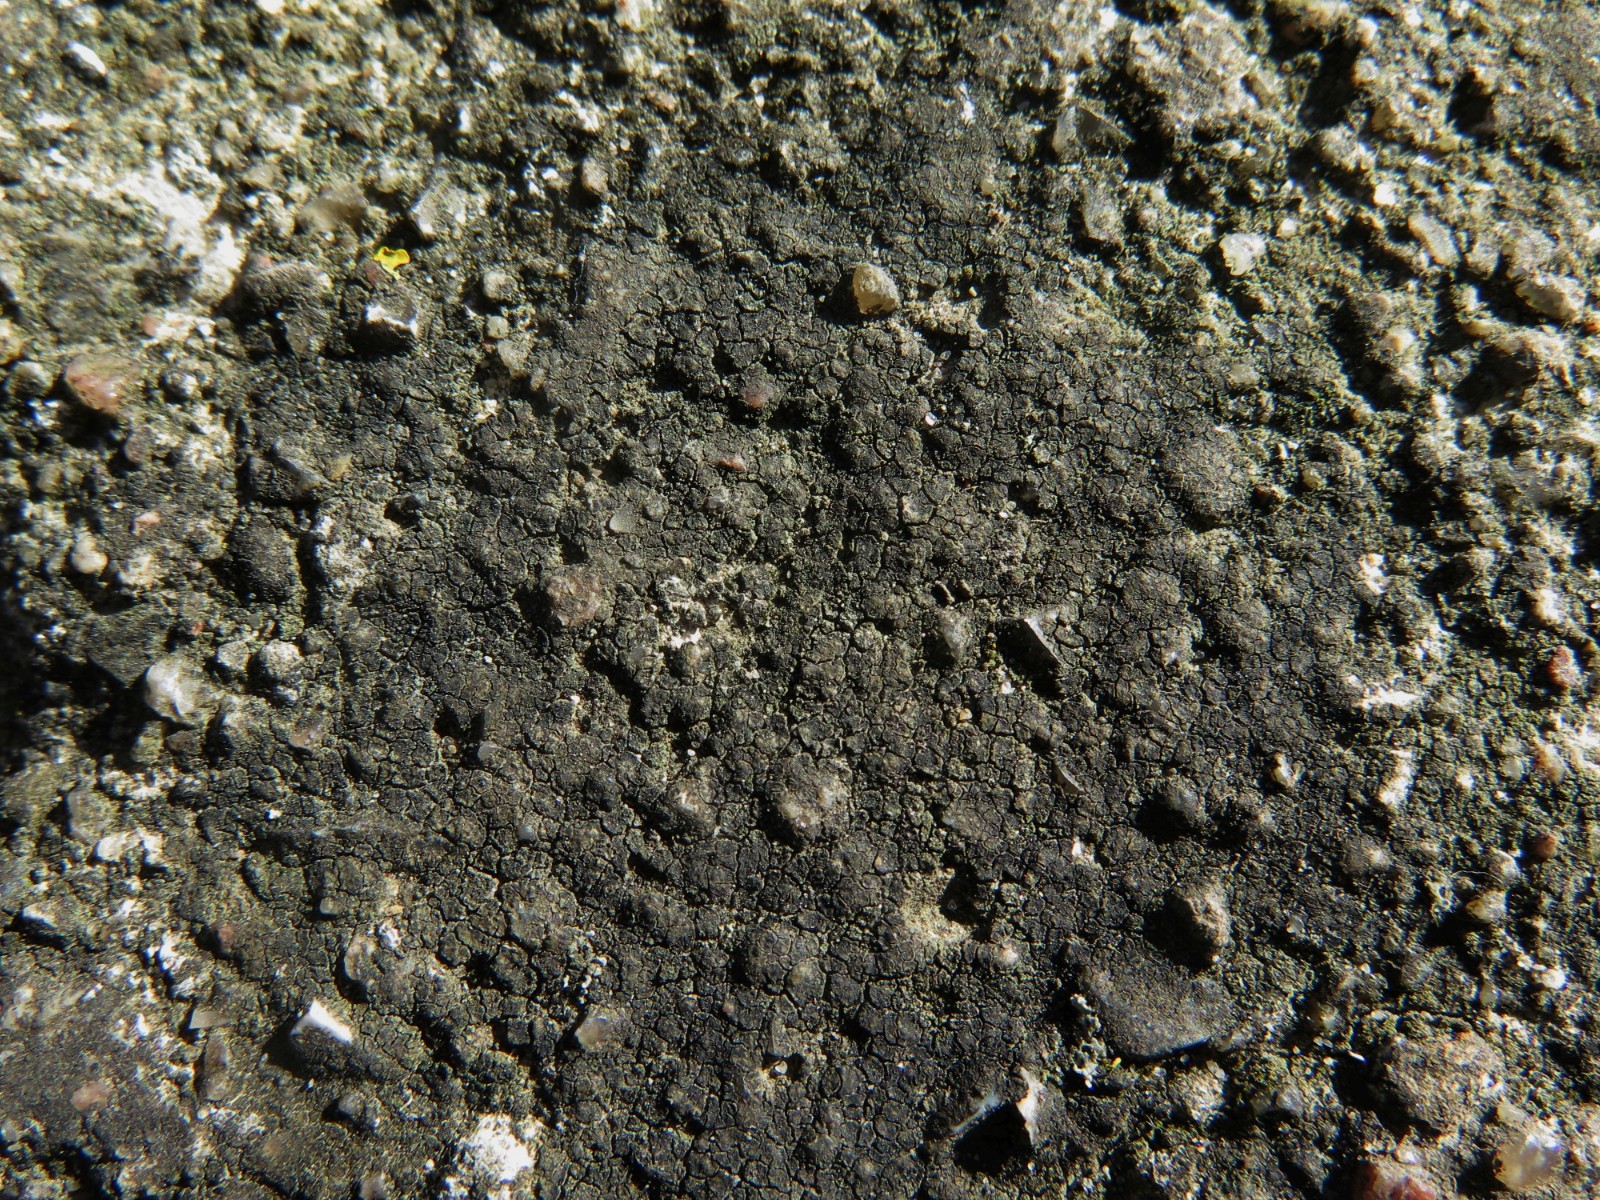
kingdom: Fungi
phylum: Ascomycota
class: Eurotiomycetes
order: Verrucariales
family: Verrucariaceae
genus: Verrucaria
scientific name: Verrucaria nigrescens
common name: sortbrun vortelav
